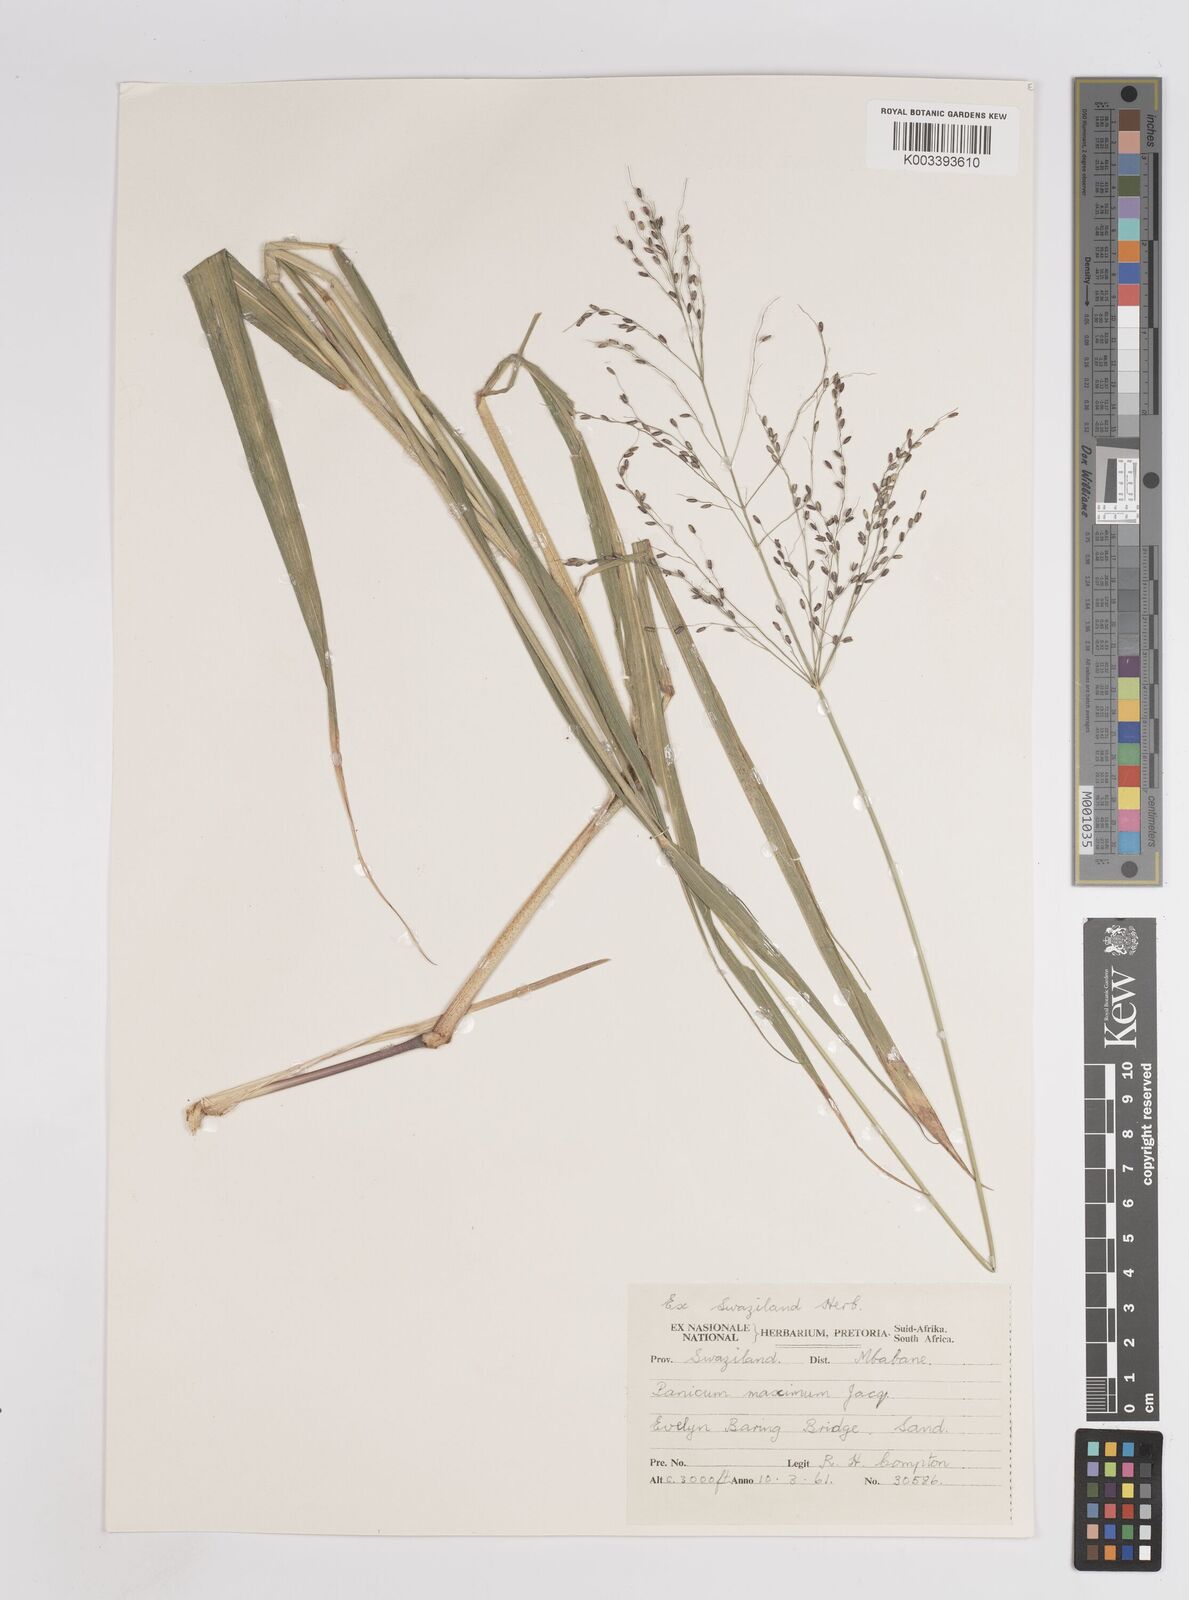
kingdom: Plantae
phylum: Tracheophyta
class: Liliopsida
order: Poales
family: Poaceae
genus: Megathyrsus
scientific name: Megathyrsus maximus
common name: Guineagrass
